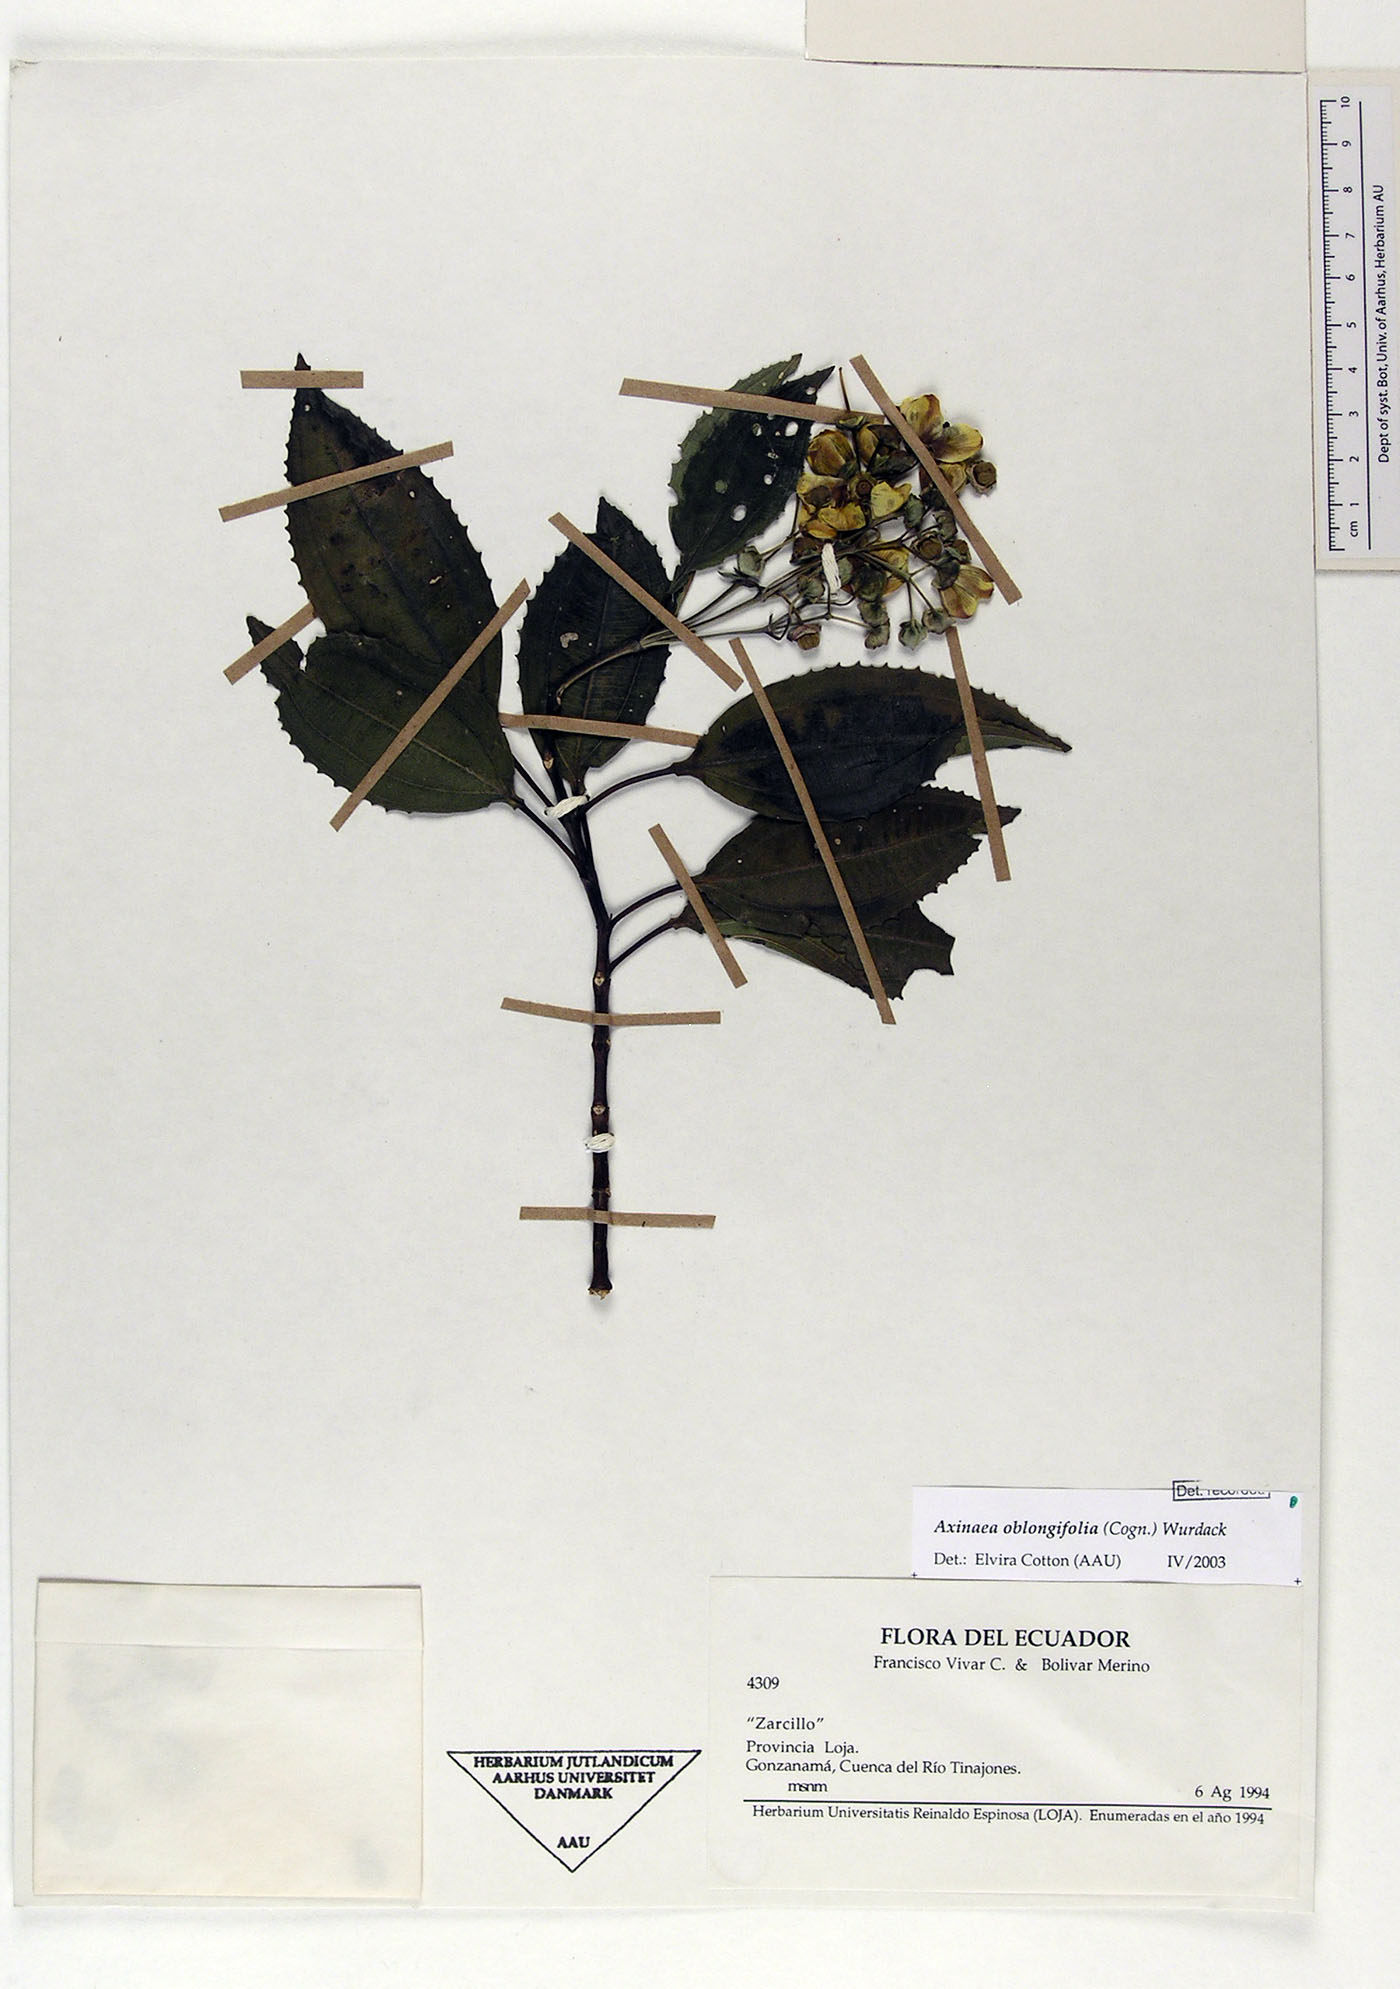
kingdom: Plantae
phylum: Tracheophyta
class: Magnoliopsida
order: Myrtales
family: Melastomataceae
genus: Axinaea
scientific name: Axinaea oblongifolia
